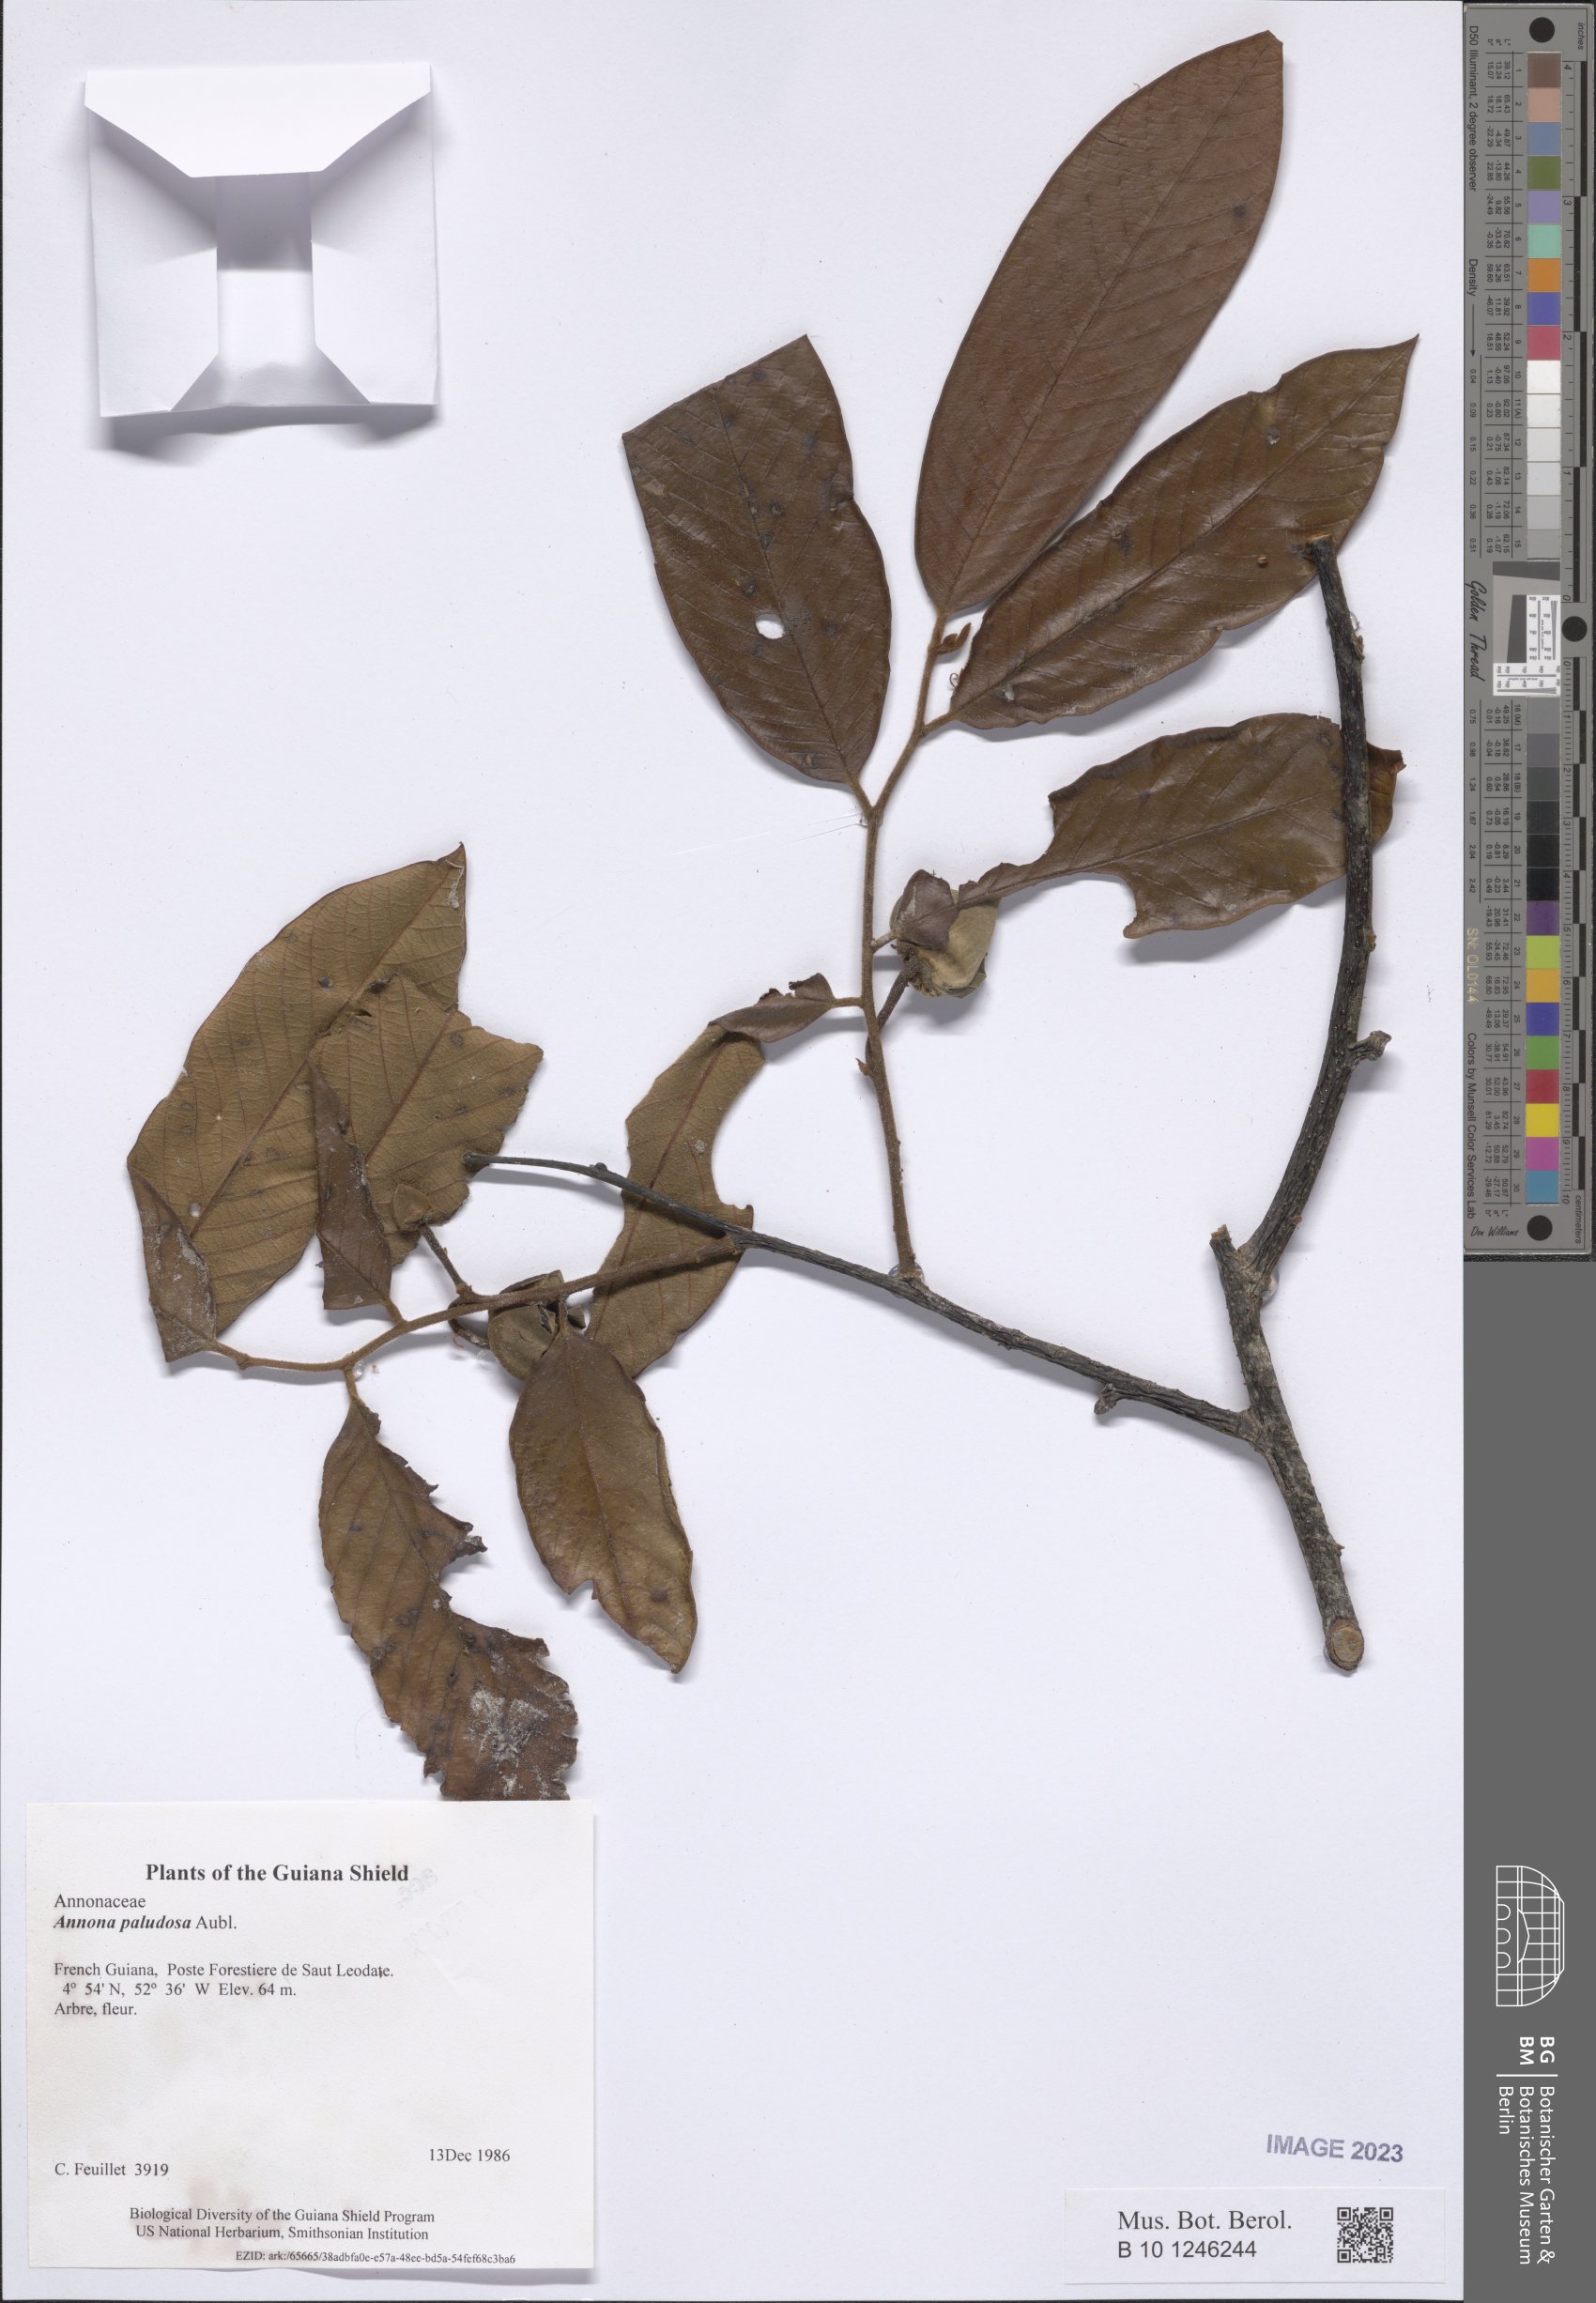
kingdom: Plantae
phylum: Tracheophyta
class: Magnoliopsida
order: Magnoliales
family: Annonaceae
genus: Annona
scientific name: Annona paludosa
